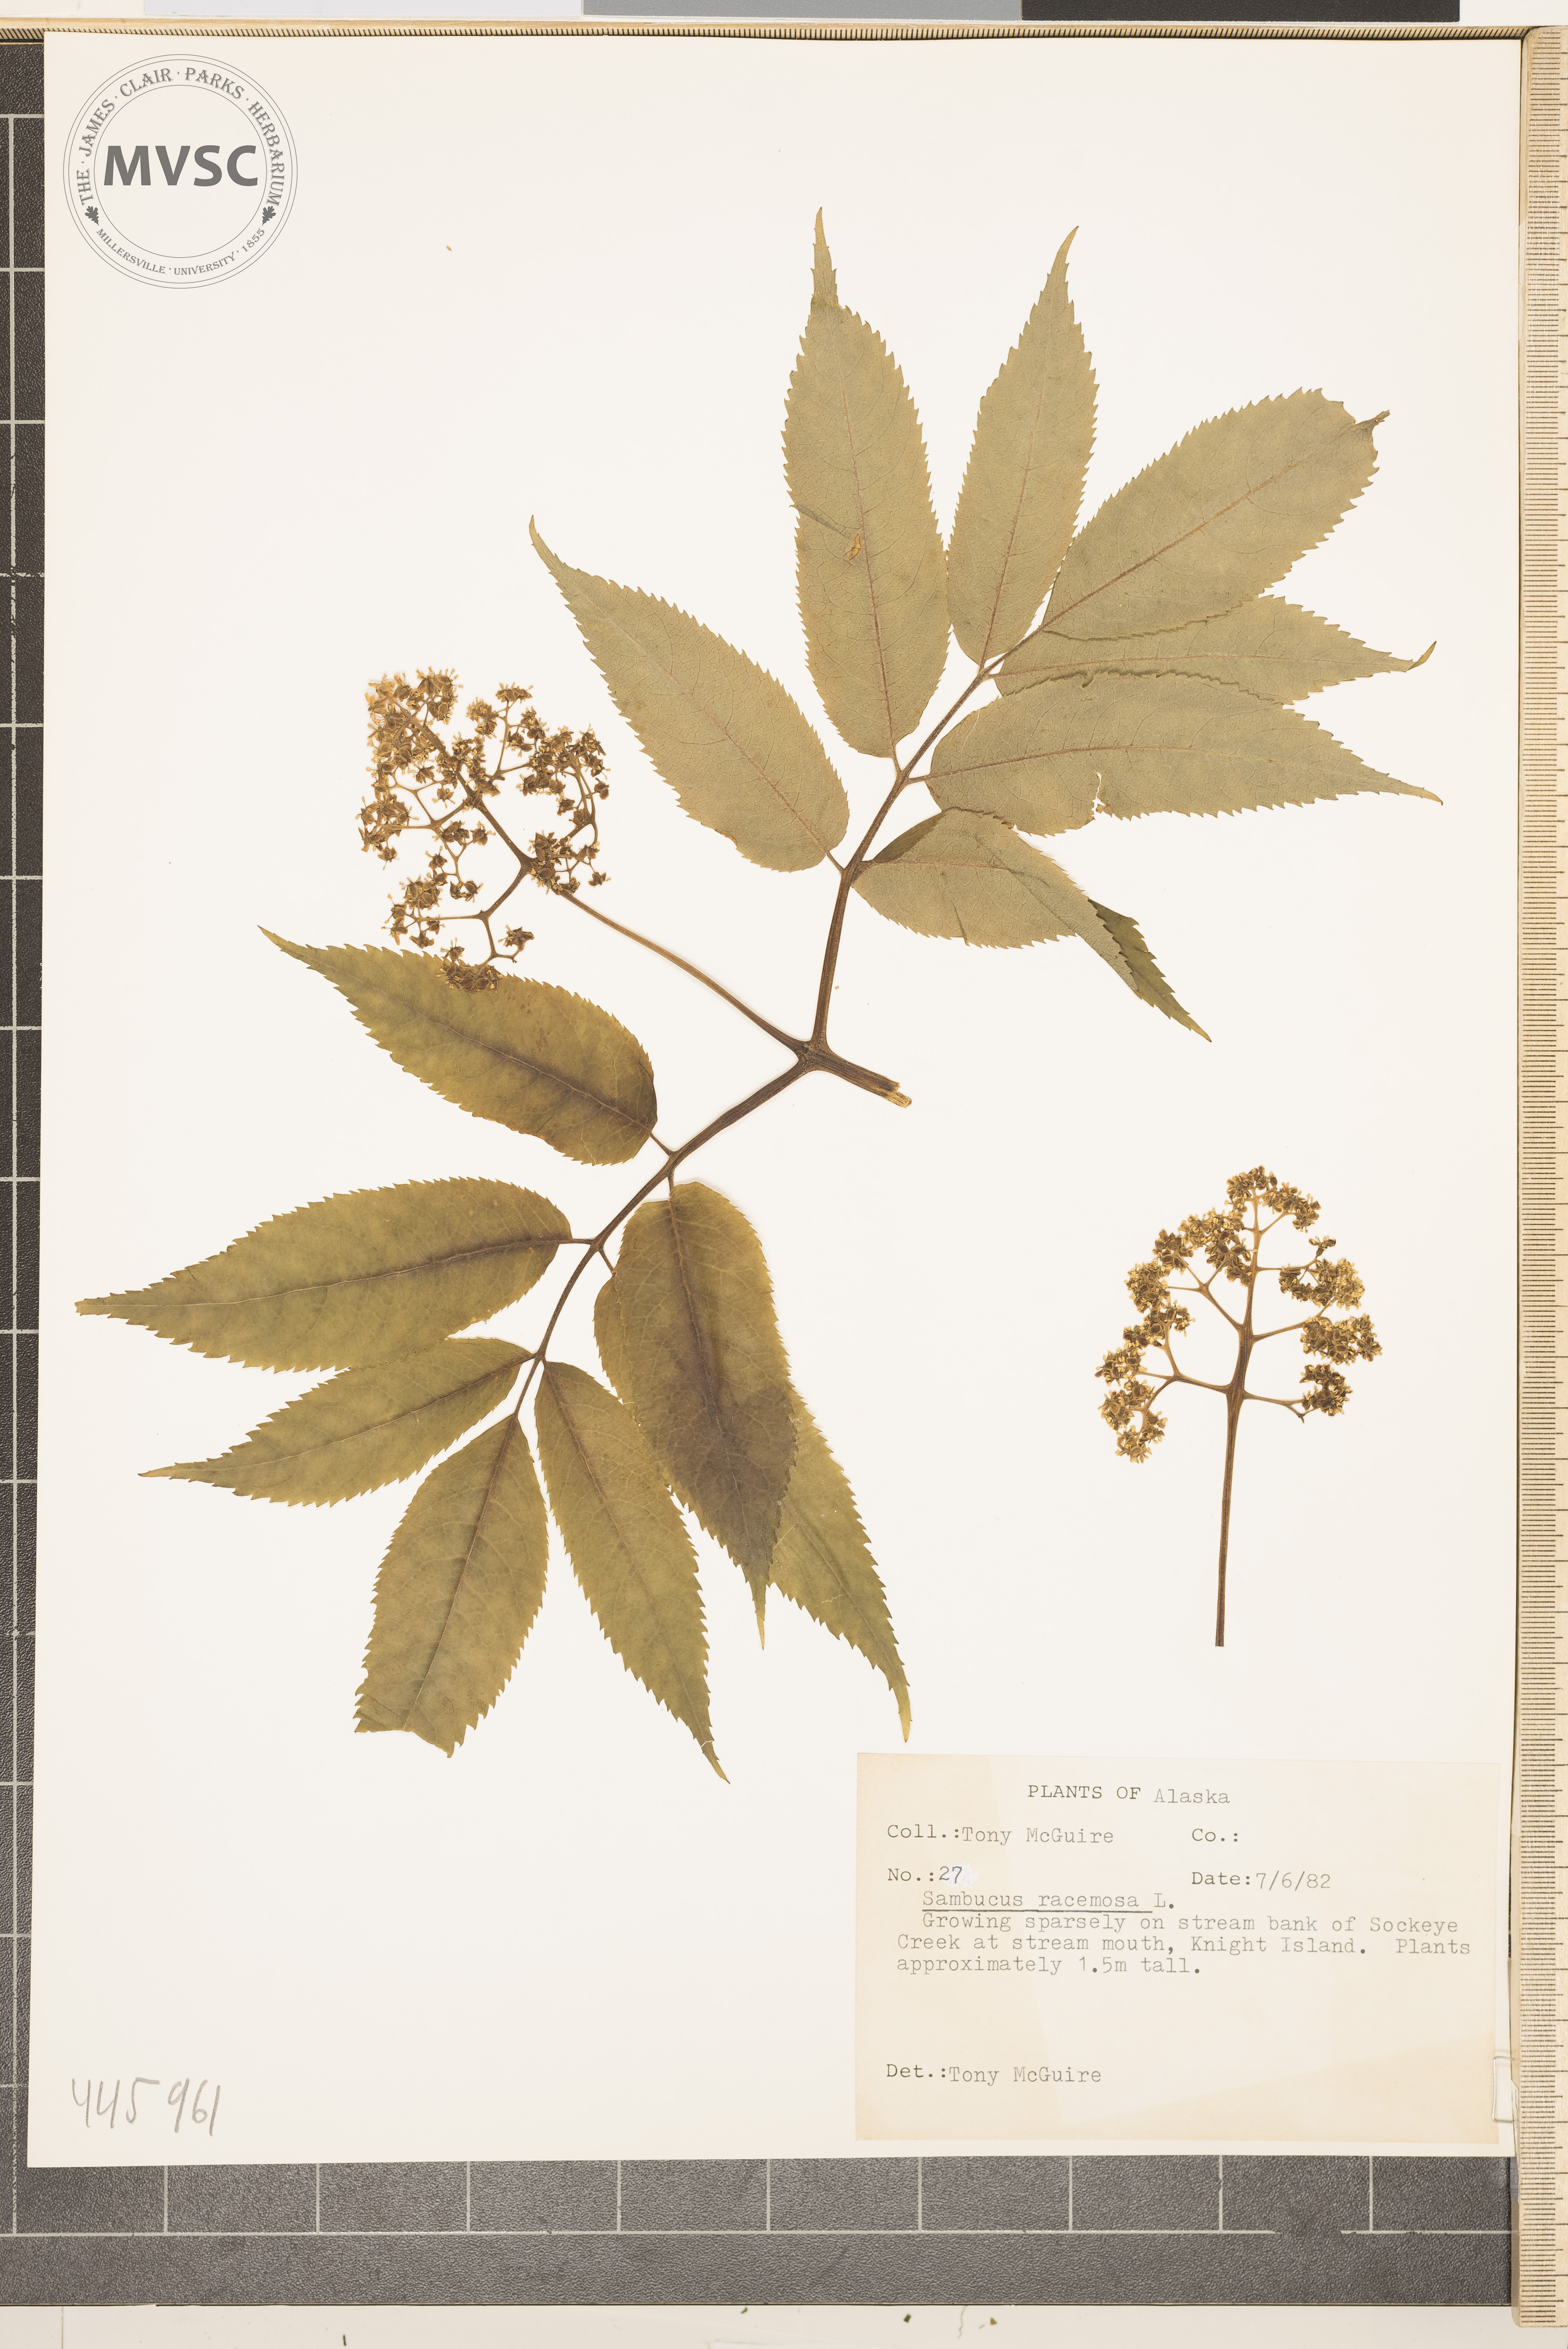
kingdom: Plantae
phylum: Tracheophyta
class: Magnoliopsida
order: Dipsacales
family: Viburnaceae
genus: Sambucus
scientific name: Sambucus racemosa
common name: Red-berried elder
